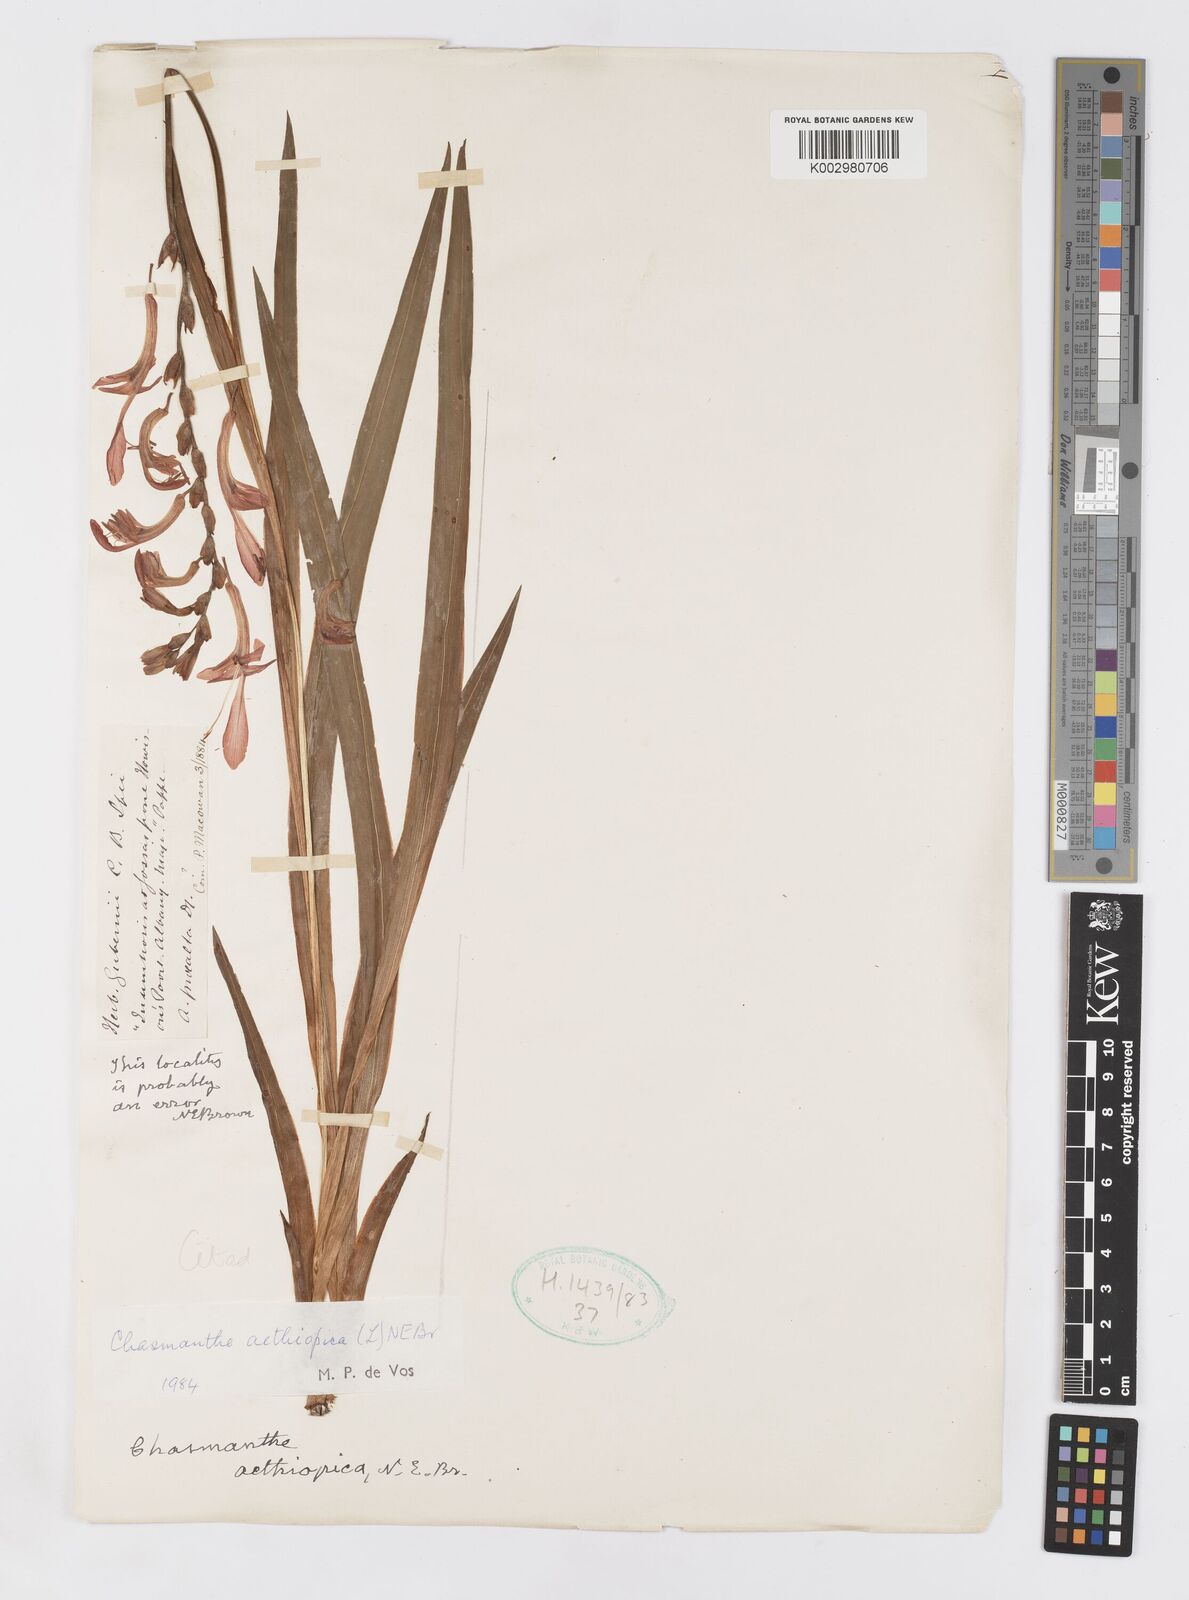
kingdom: Plantae
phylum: Tracheophyta
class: Liliopsida
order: Asparagales
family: Iridaceae
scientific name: Iridaceae
